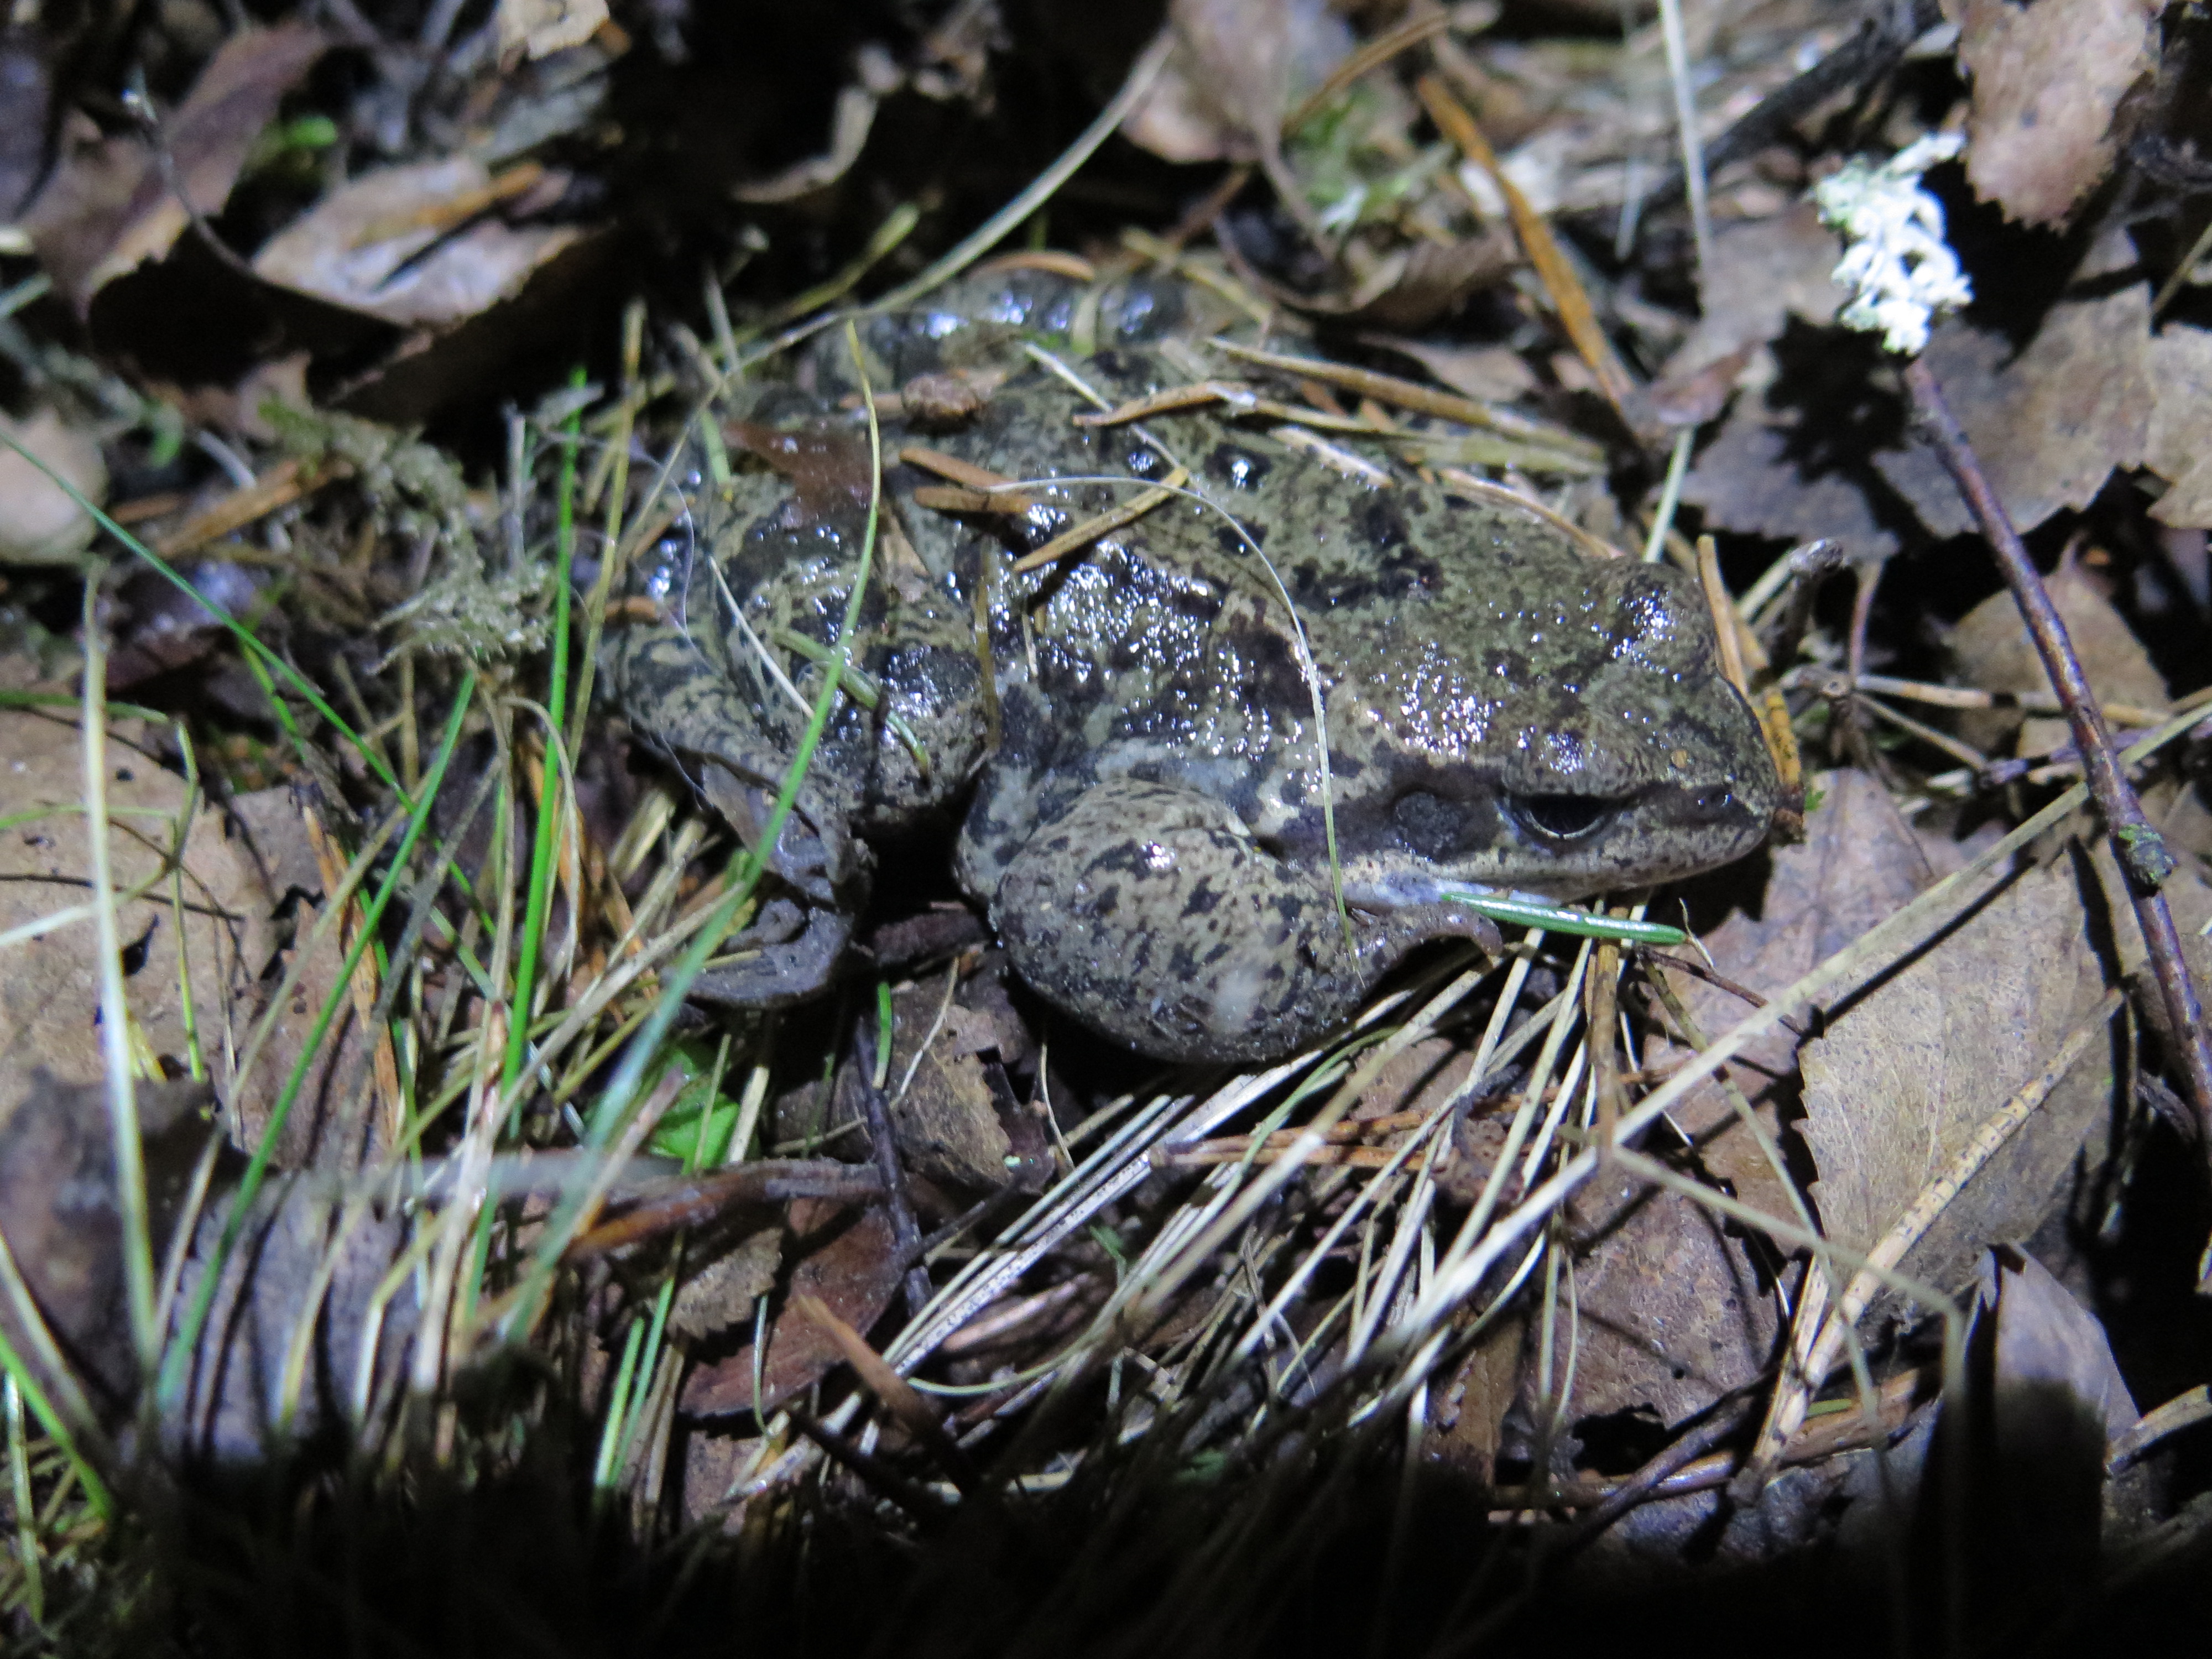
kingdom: Animalia
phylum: Chordata
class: Amphibia
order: Anura
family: Ranidae
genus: Rana
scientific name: Rana temporaria
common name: Common frog
